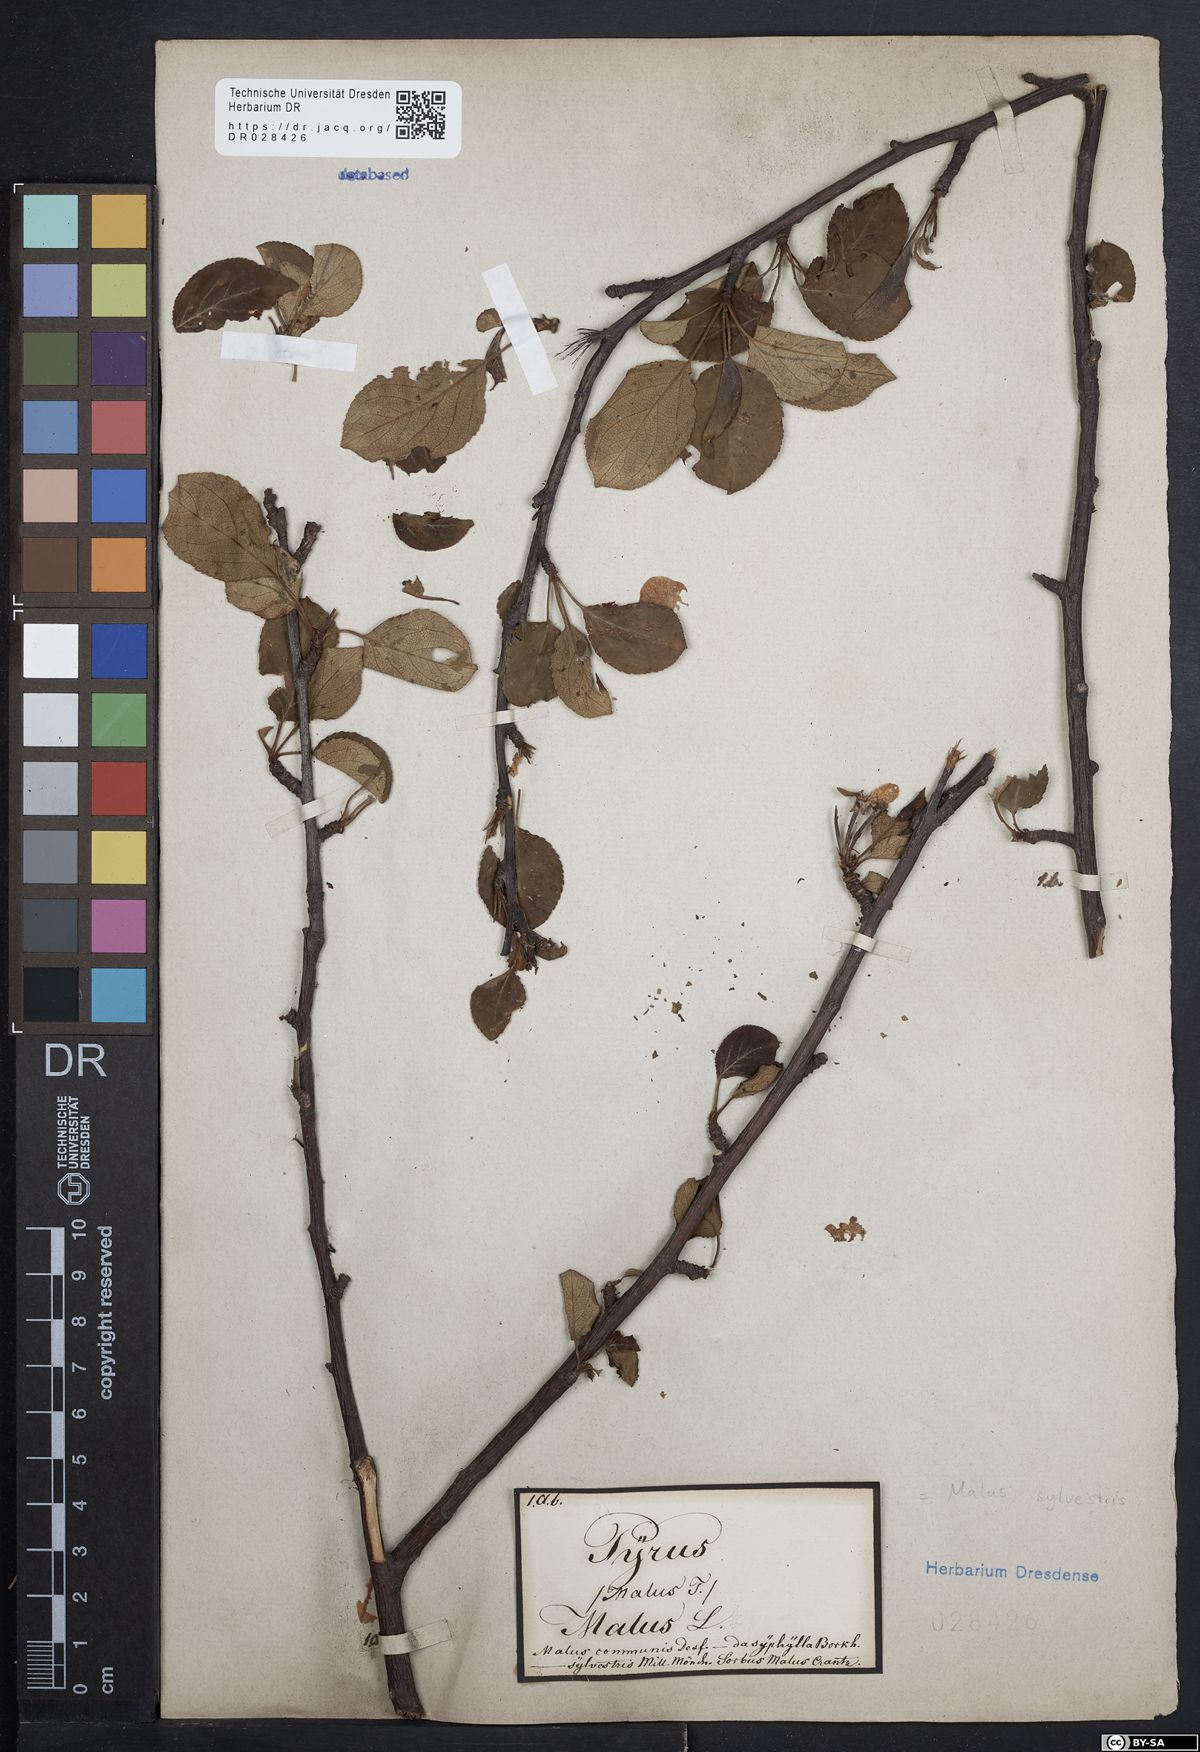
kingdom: Plantae
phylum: Tracheophyta
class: Magnoliopsida
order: Rosales
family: Rosaceae
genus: Malus
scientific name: Malus sylvestris
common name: Crab apple
